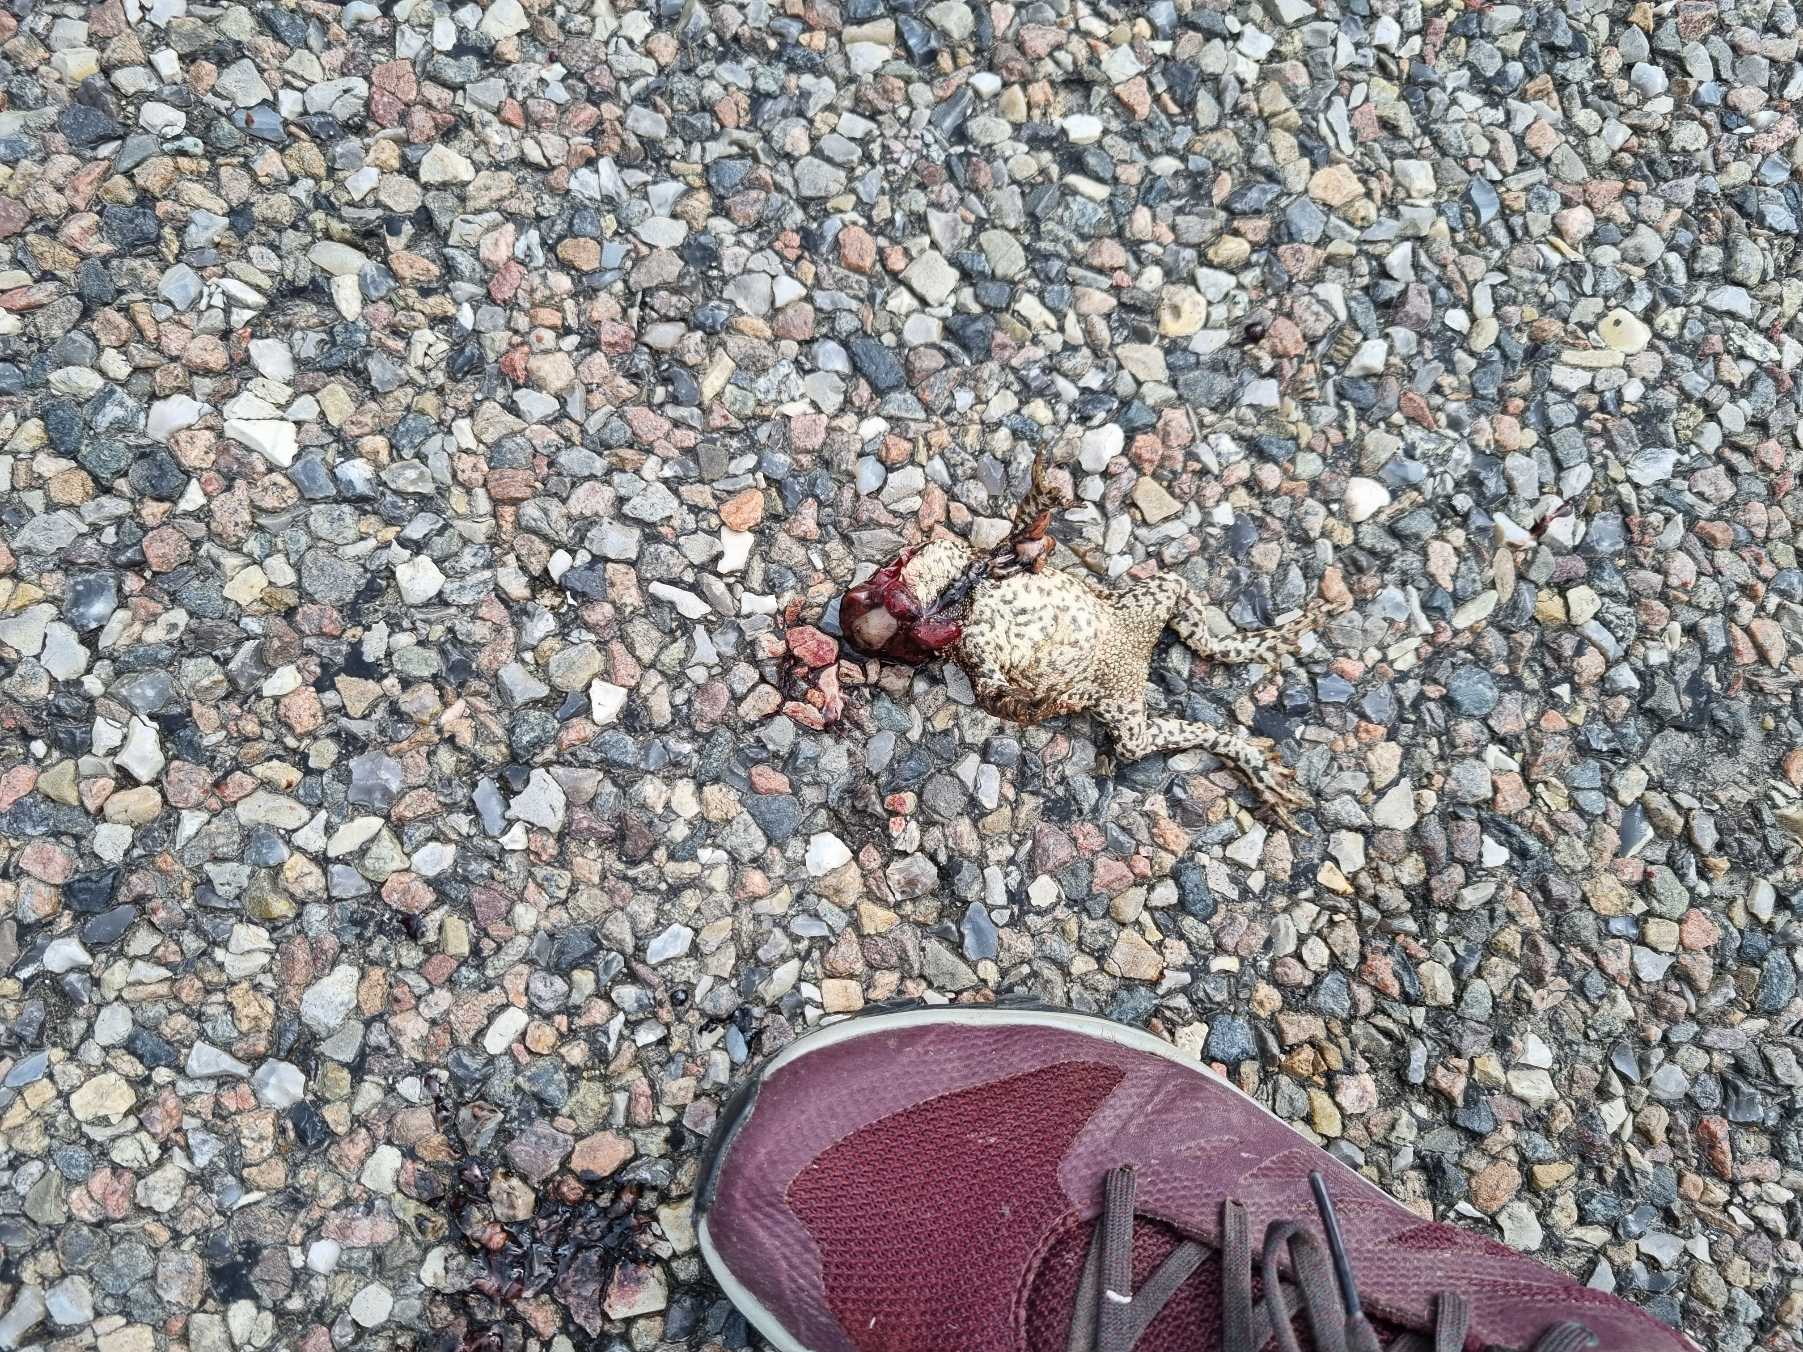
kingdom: Animalia
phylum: Chordata
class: Amphibia
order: Anura
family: Bufonidae
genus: Bufo
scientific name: Bufo bufo
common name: Skrubtudse
